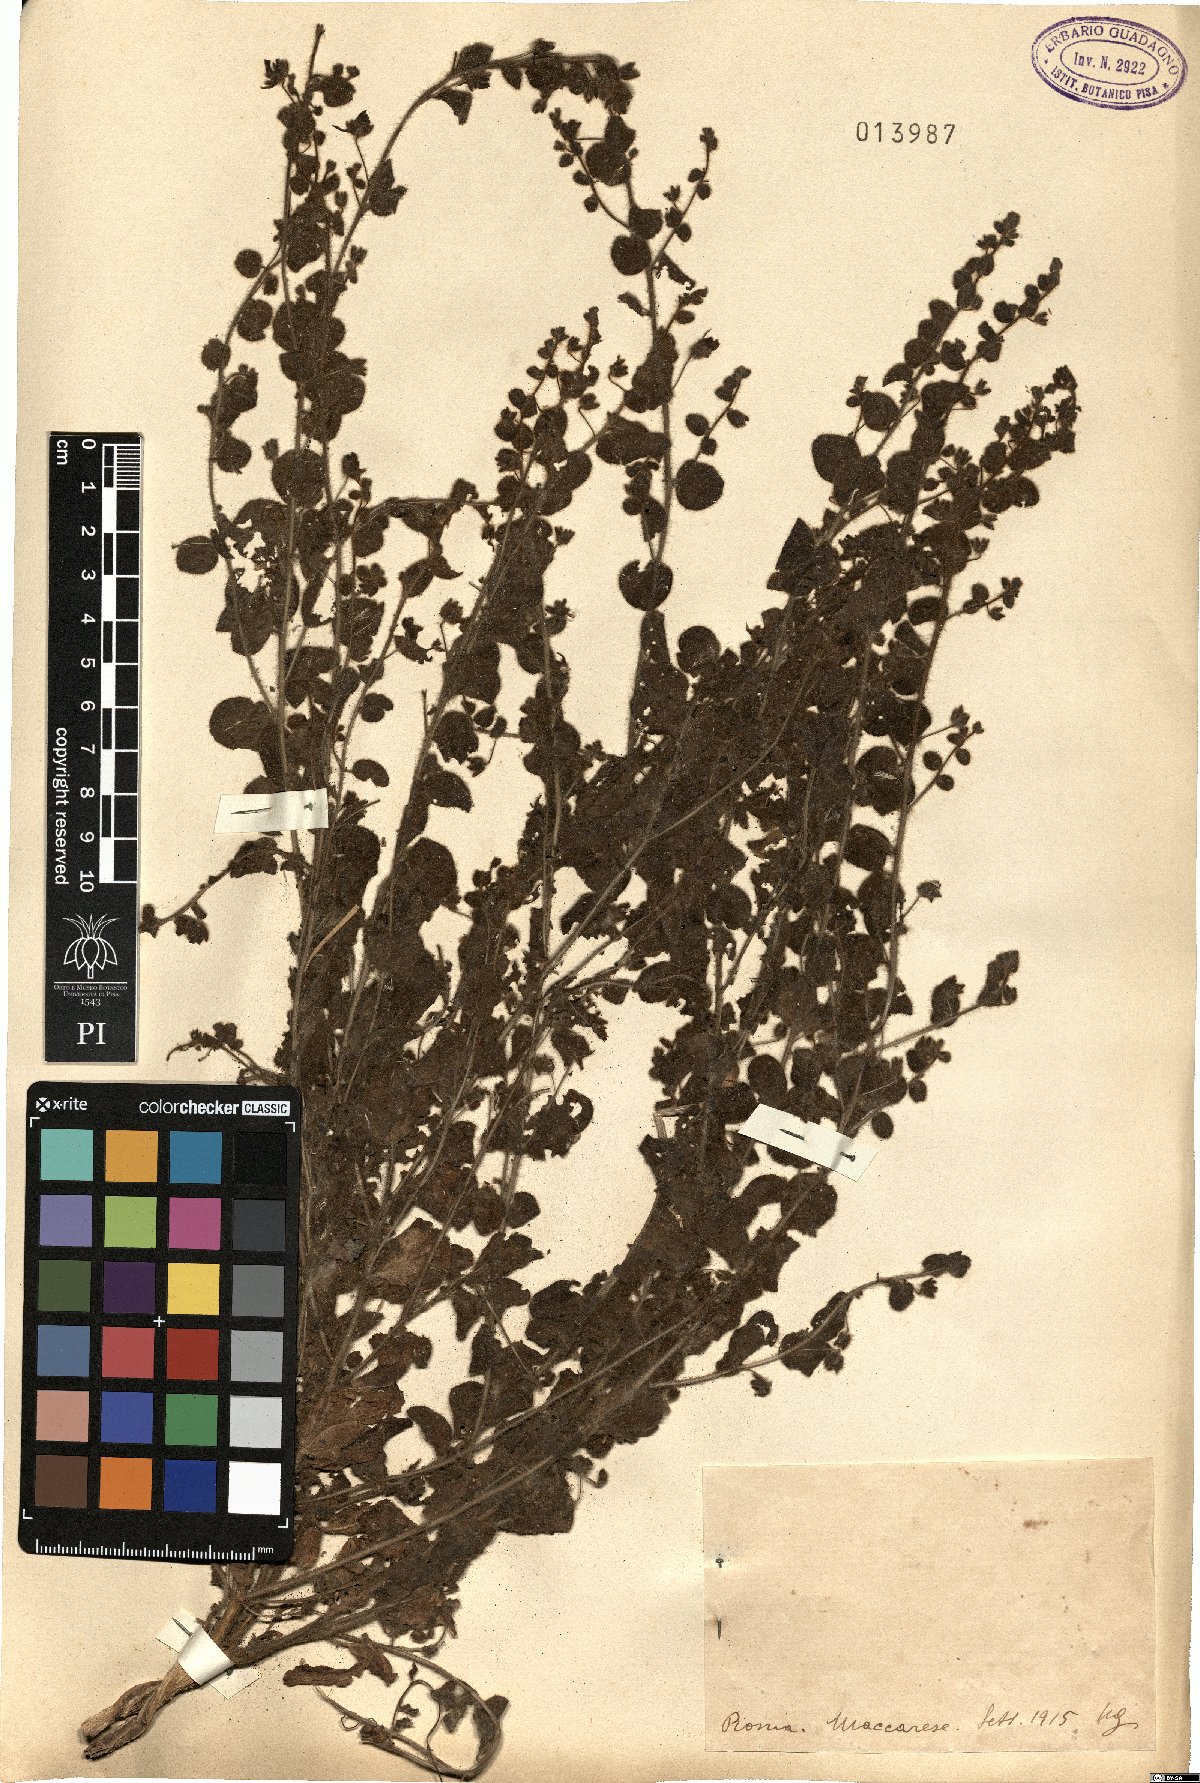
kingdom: Plantae
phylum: Tracheophyta
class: Magnoliopsida
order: Lamiales
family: Plantaginaceae
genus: Linaria
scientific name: Linaria
